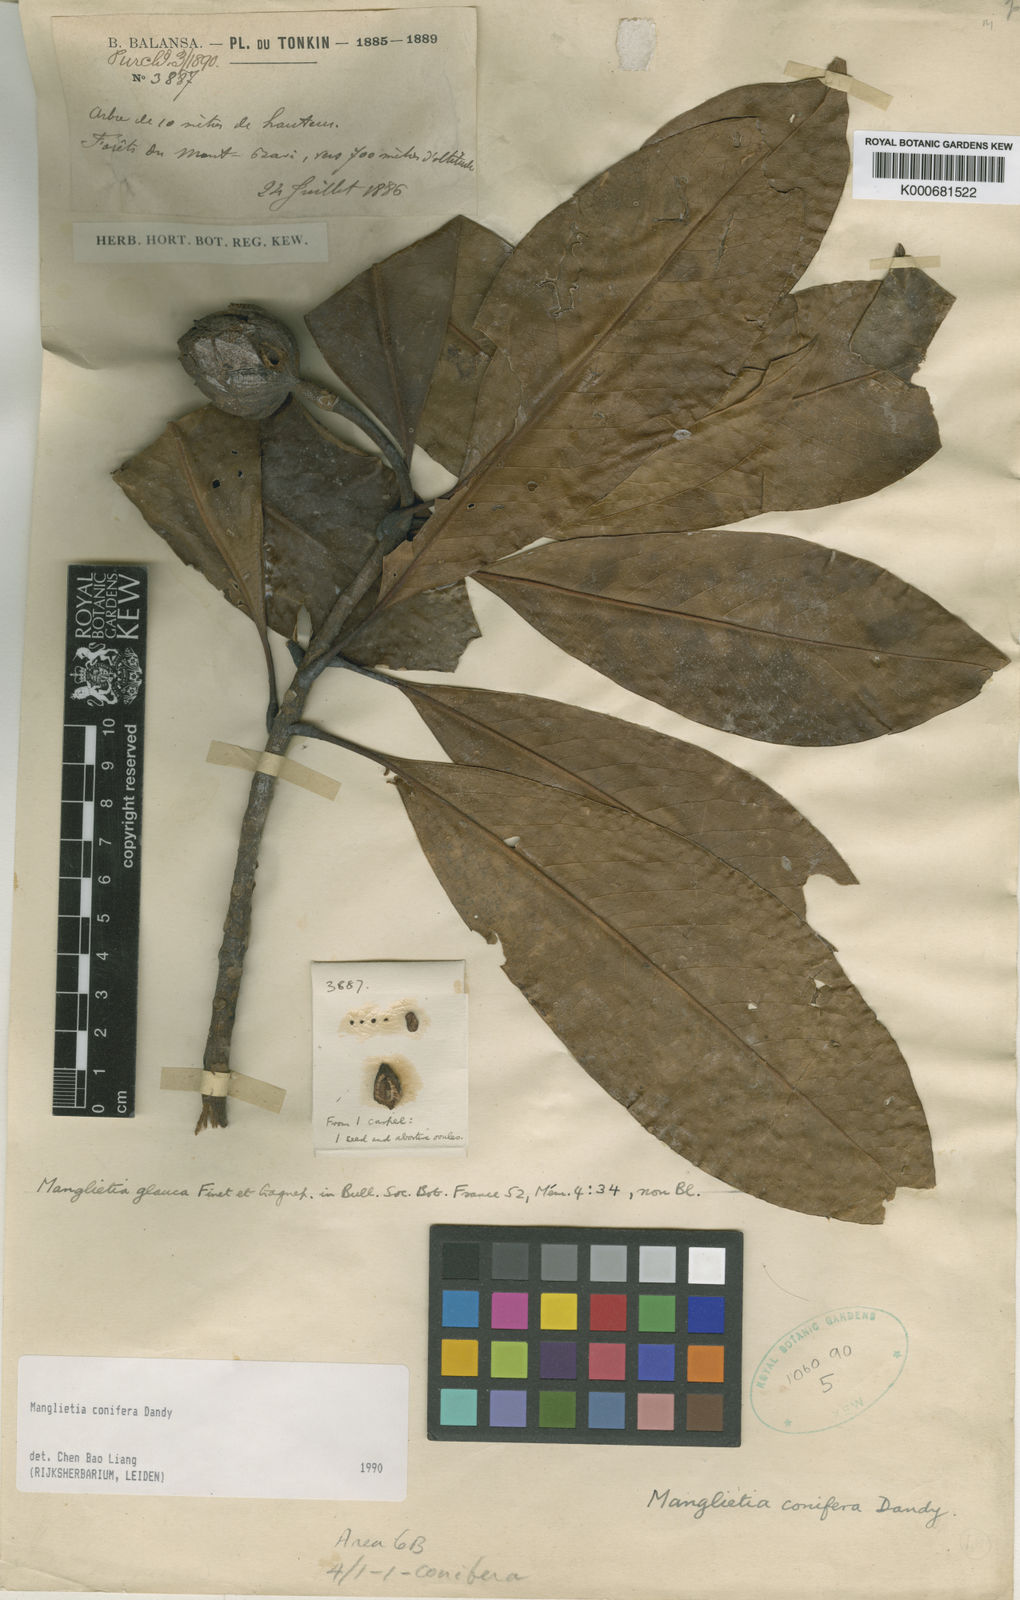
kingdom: Plantae
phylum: Tracheophyta
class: Magnoliopsida
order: Magnoliales
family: Magnoliaceae
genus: Magnolia
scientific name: Magnolia conifera
